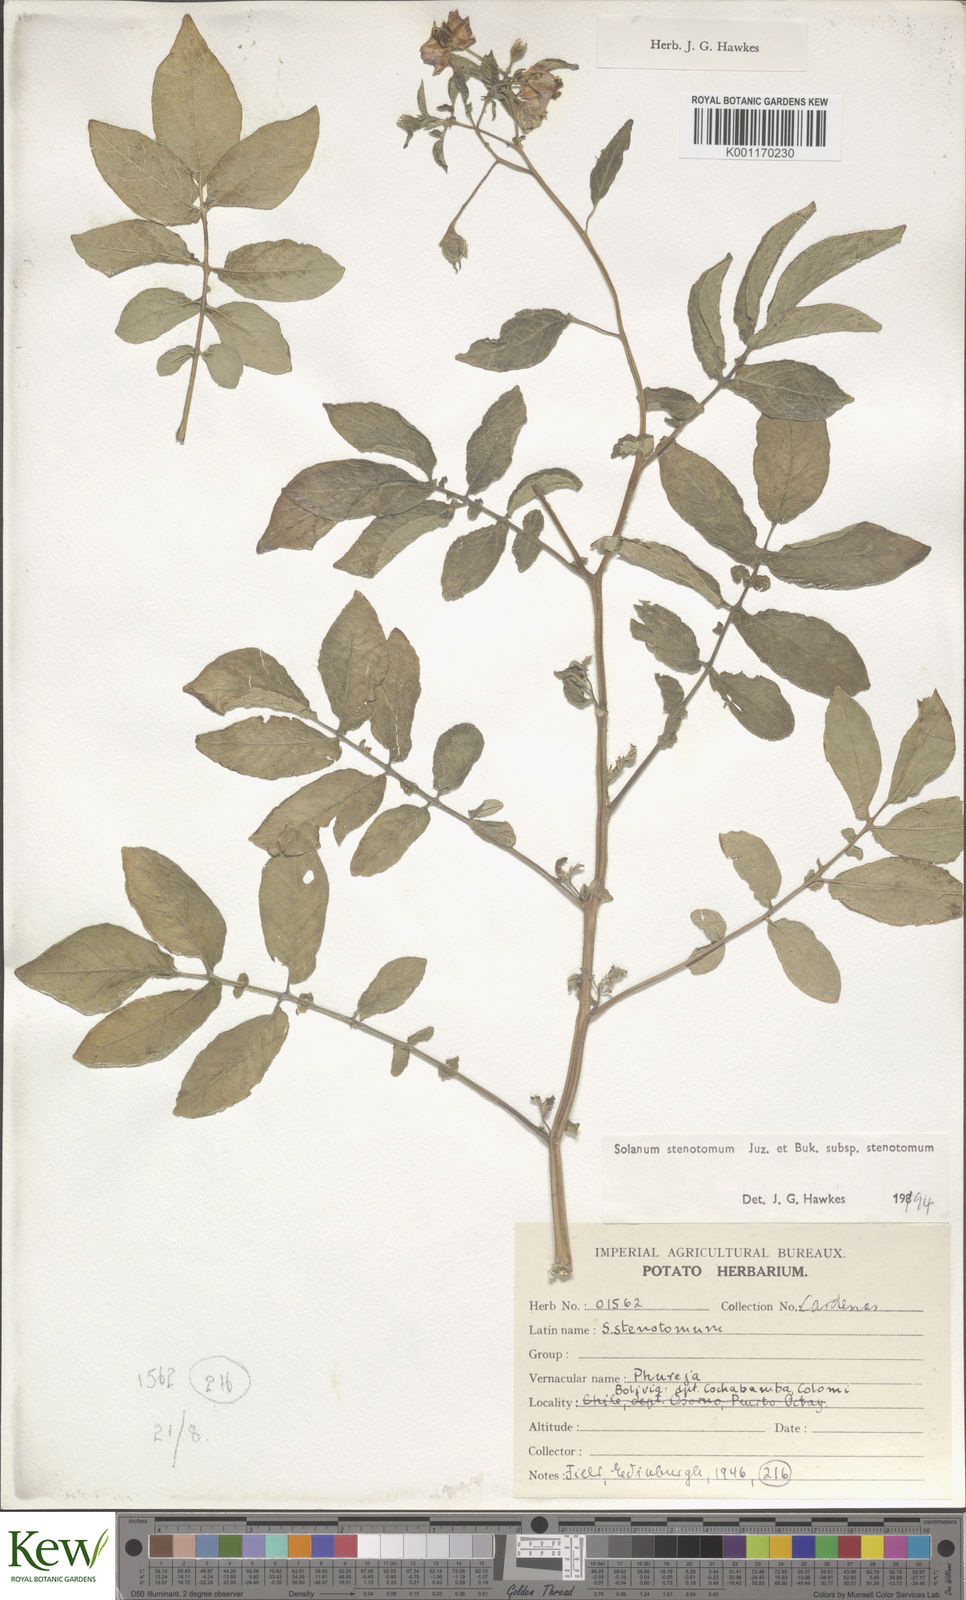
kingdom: Plantae
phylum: Tracheophyta
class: Magnoliopsida
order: Solanales
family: Solanaceae
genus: Solanum
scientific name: Solanum tuberosum
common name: Potato
